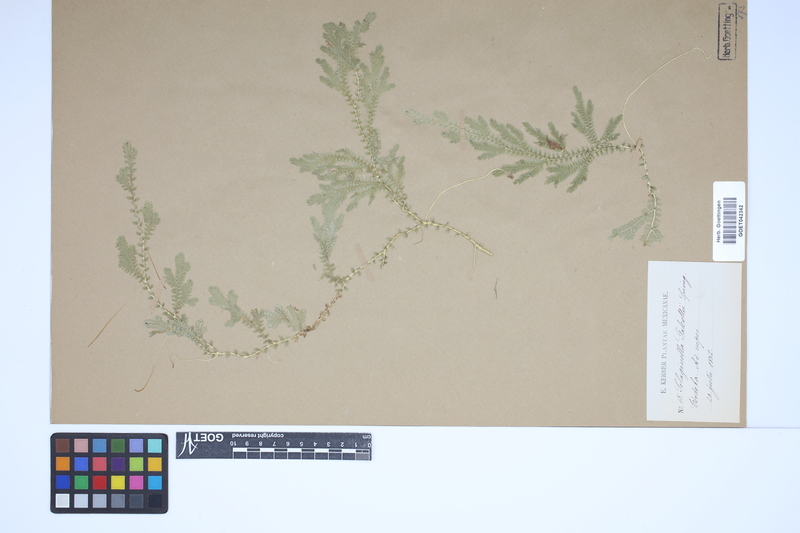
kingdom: Plantae
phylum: Tracheophyta
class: Lycopodiopsida
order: Selaginellales
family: Selaginellaceae
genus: Selaginella
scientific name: Selaginella stellata
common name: Starry spikemoss
